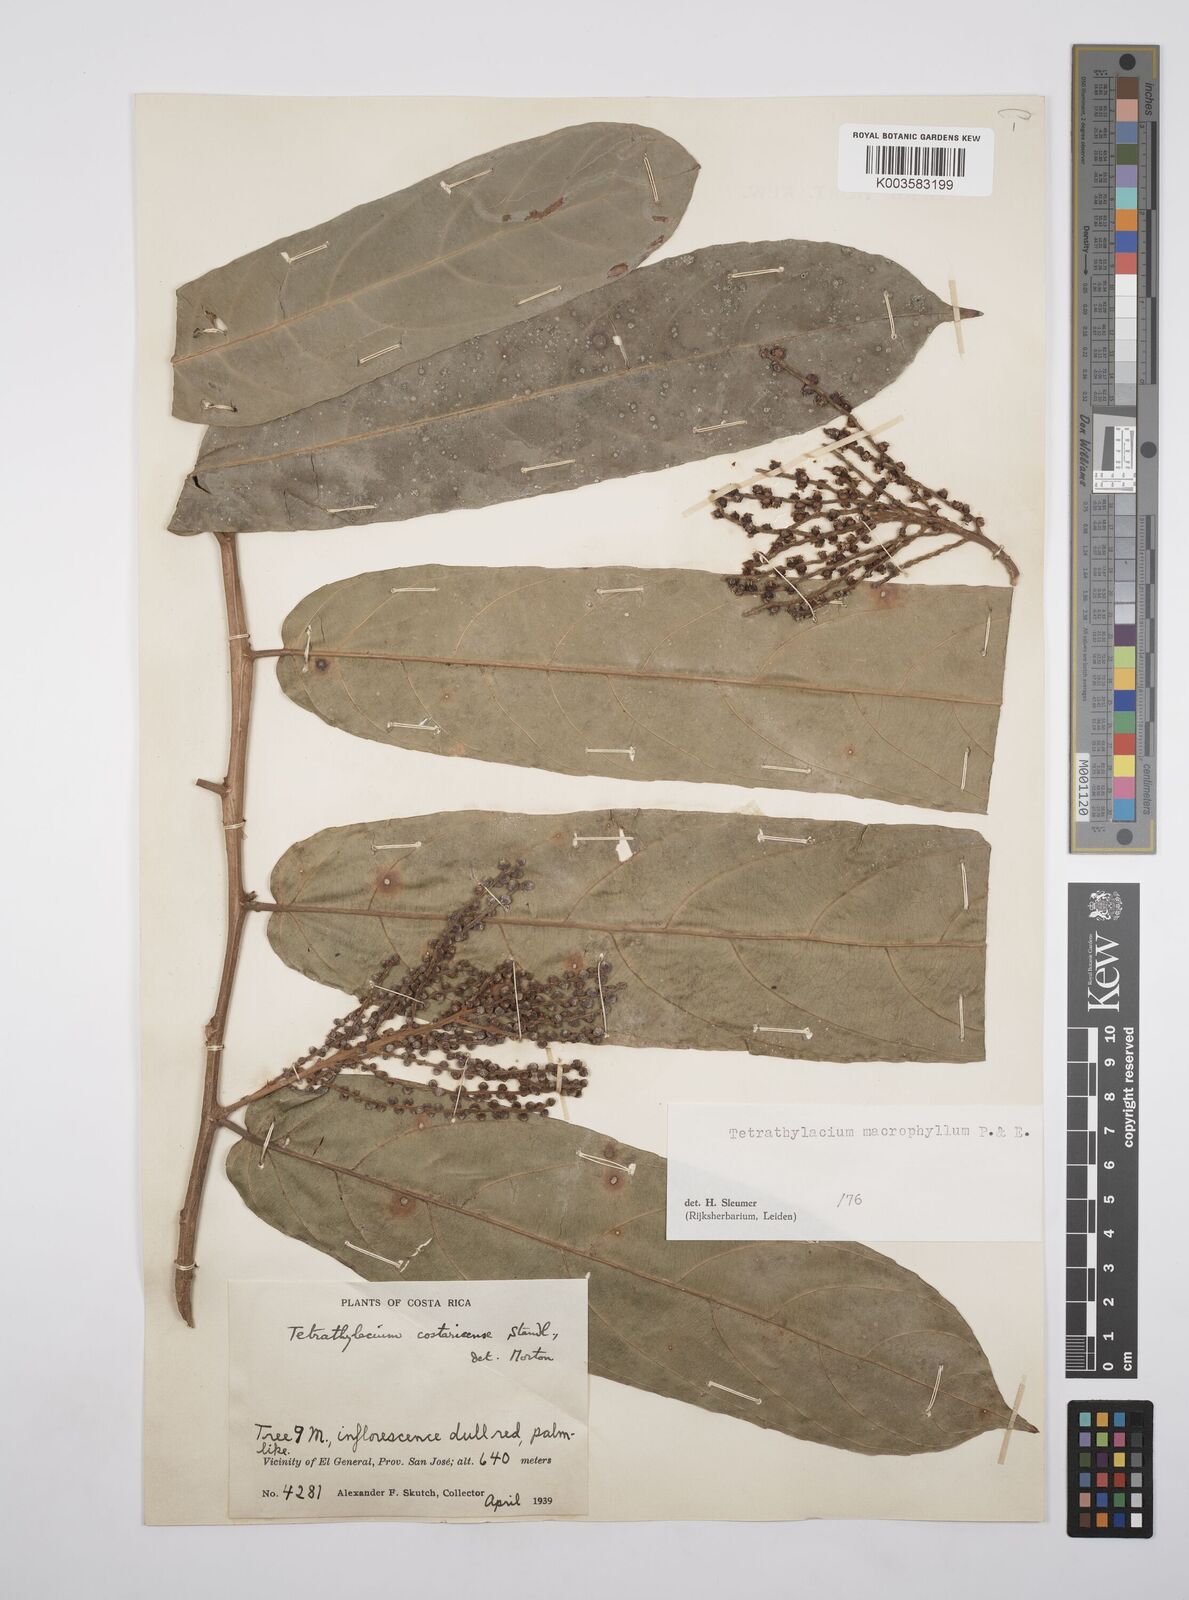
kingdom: Plantae
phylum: Tracheophyta
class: Magnoliopsida
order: Malpighiales
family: Salicaceae
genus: Tetrathylacium
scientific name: Tetrathylacium macrophyllum
